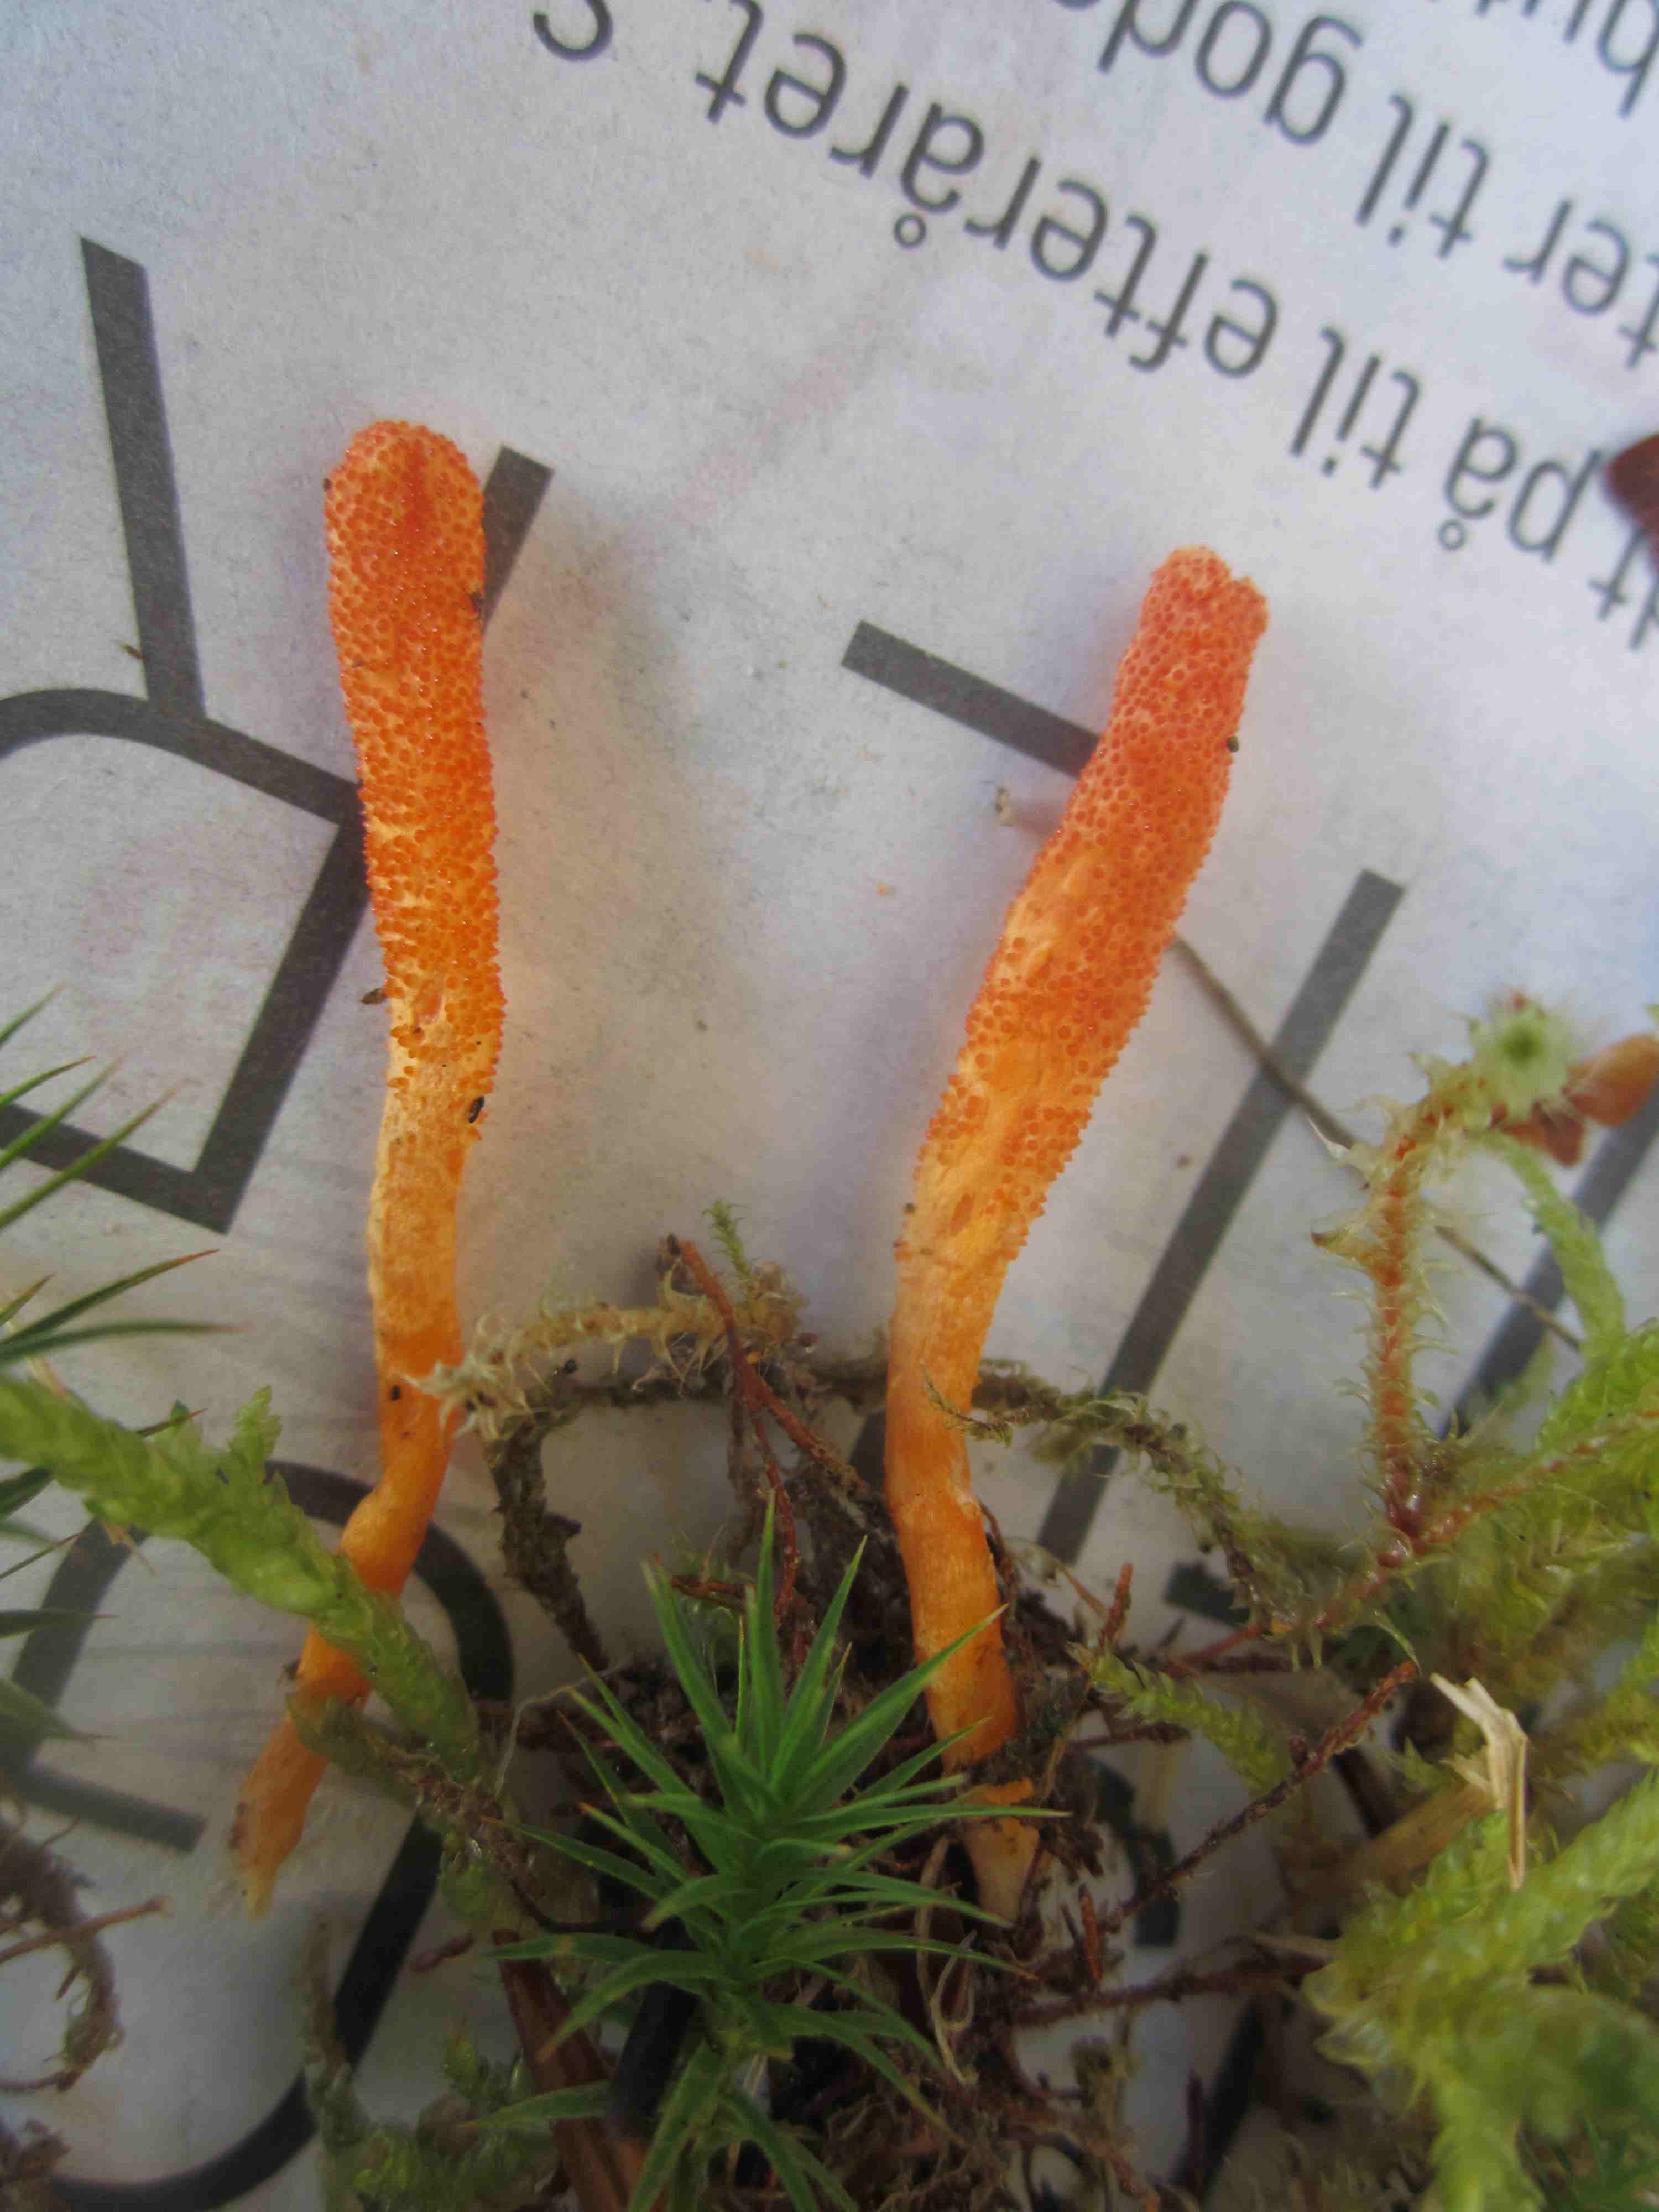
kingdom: Fungi
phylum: Ascomycota
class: Sordariomycetes
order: Hypocreales
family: Cordycipitaceae
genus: Cordyceps
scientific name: Cordyceps militaris
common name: puppe-snyltekølle
